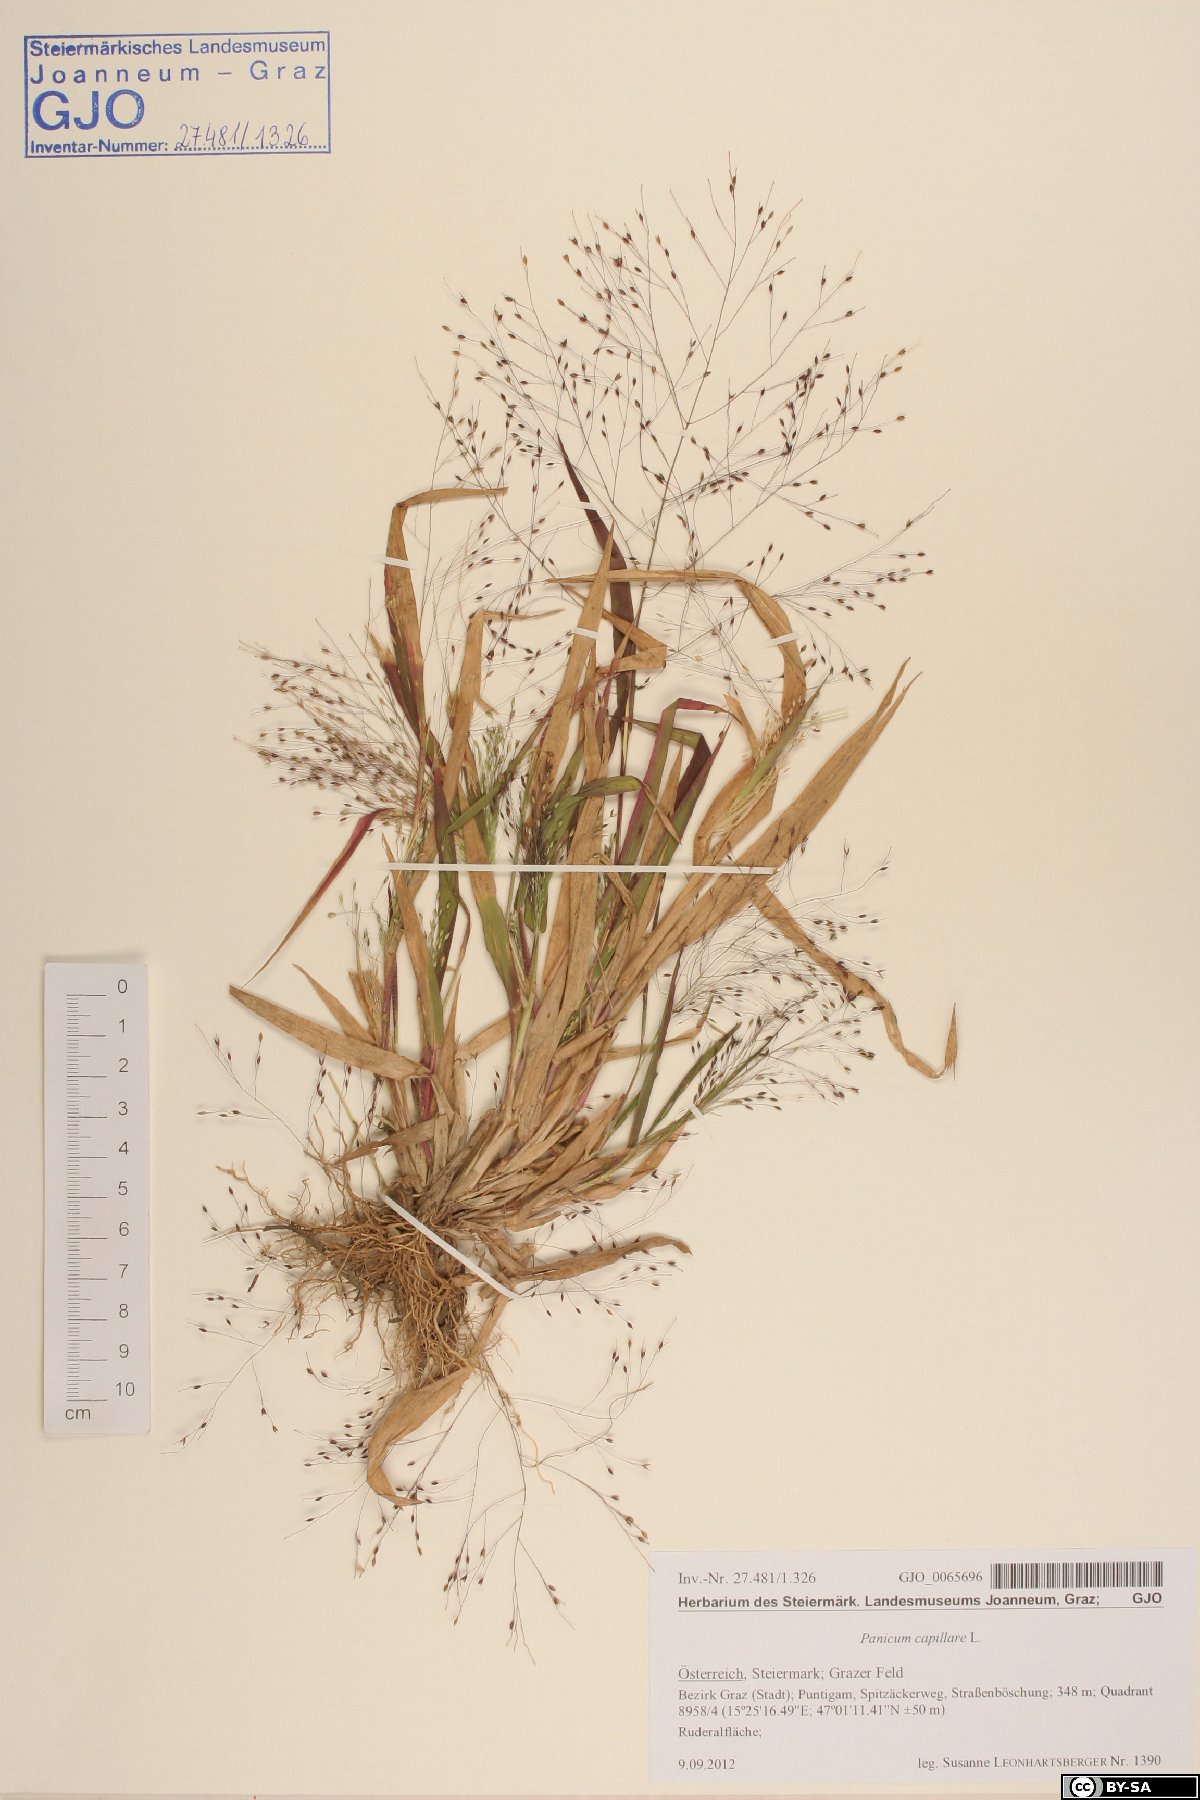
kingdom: Plantae
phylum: Tracheophyta
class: Liliopsida
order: Poales
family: Poaceae
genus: Panicum
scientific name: Panicum capillare
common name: Witch-grass
